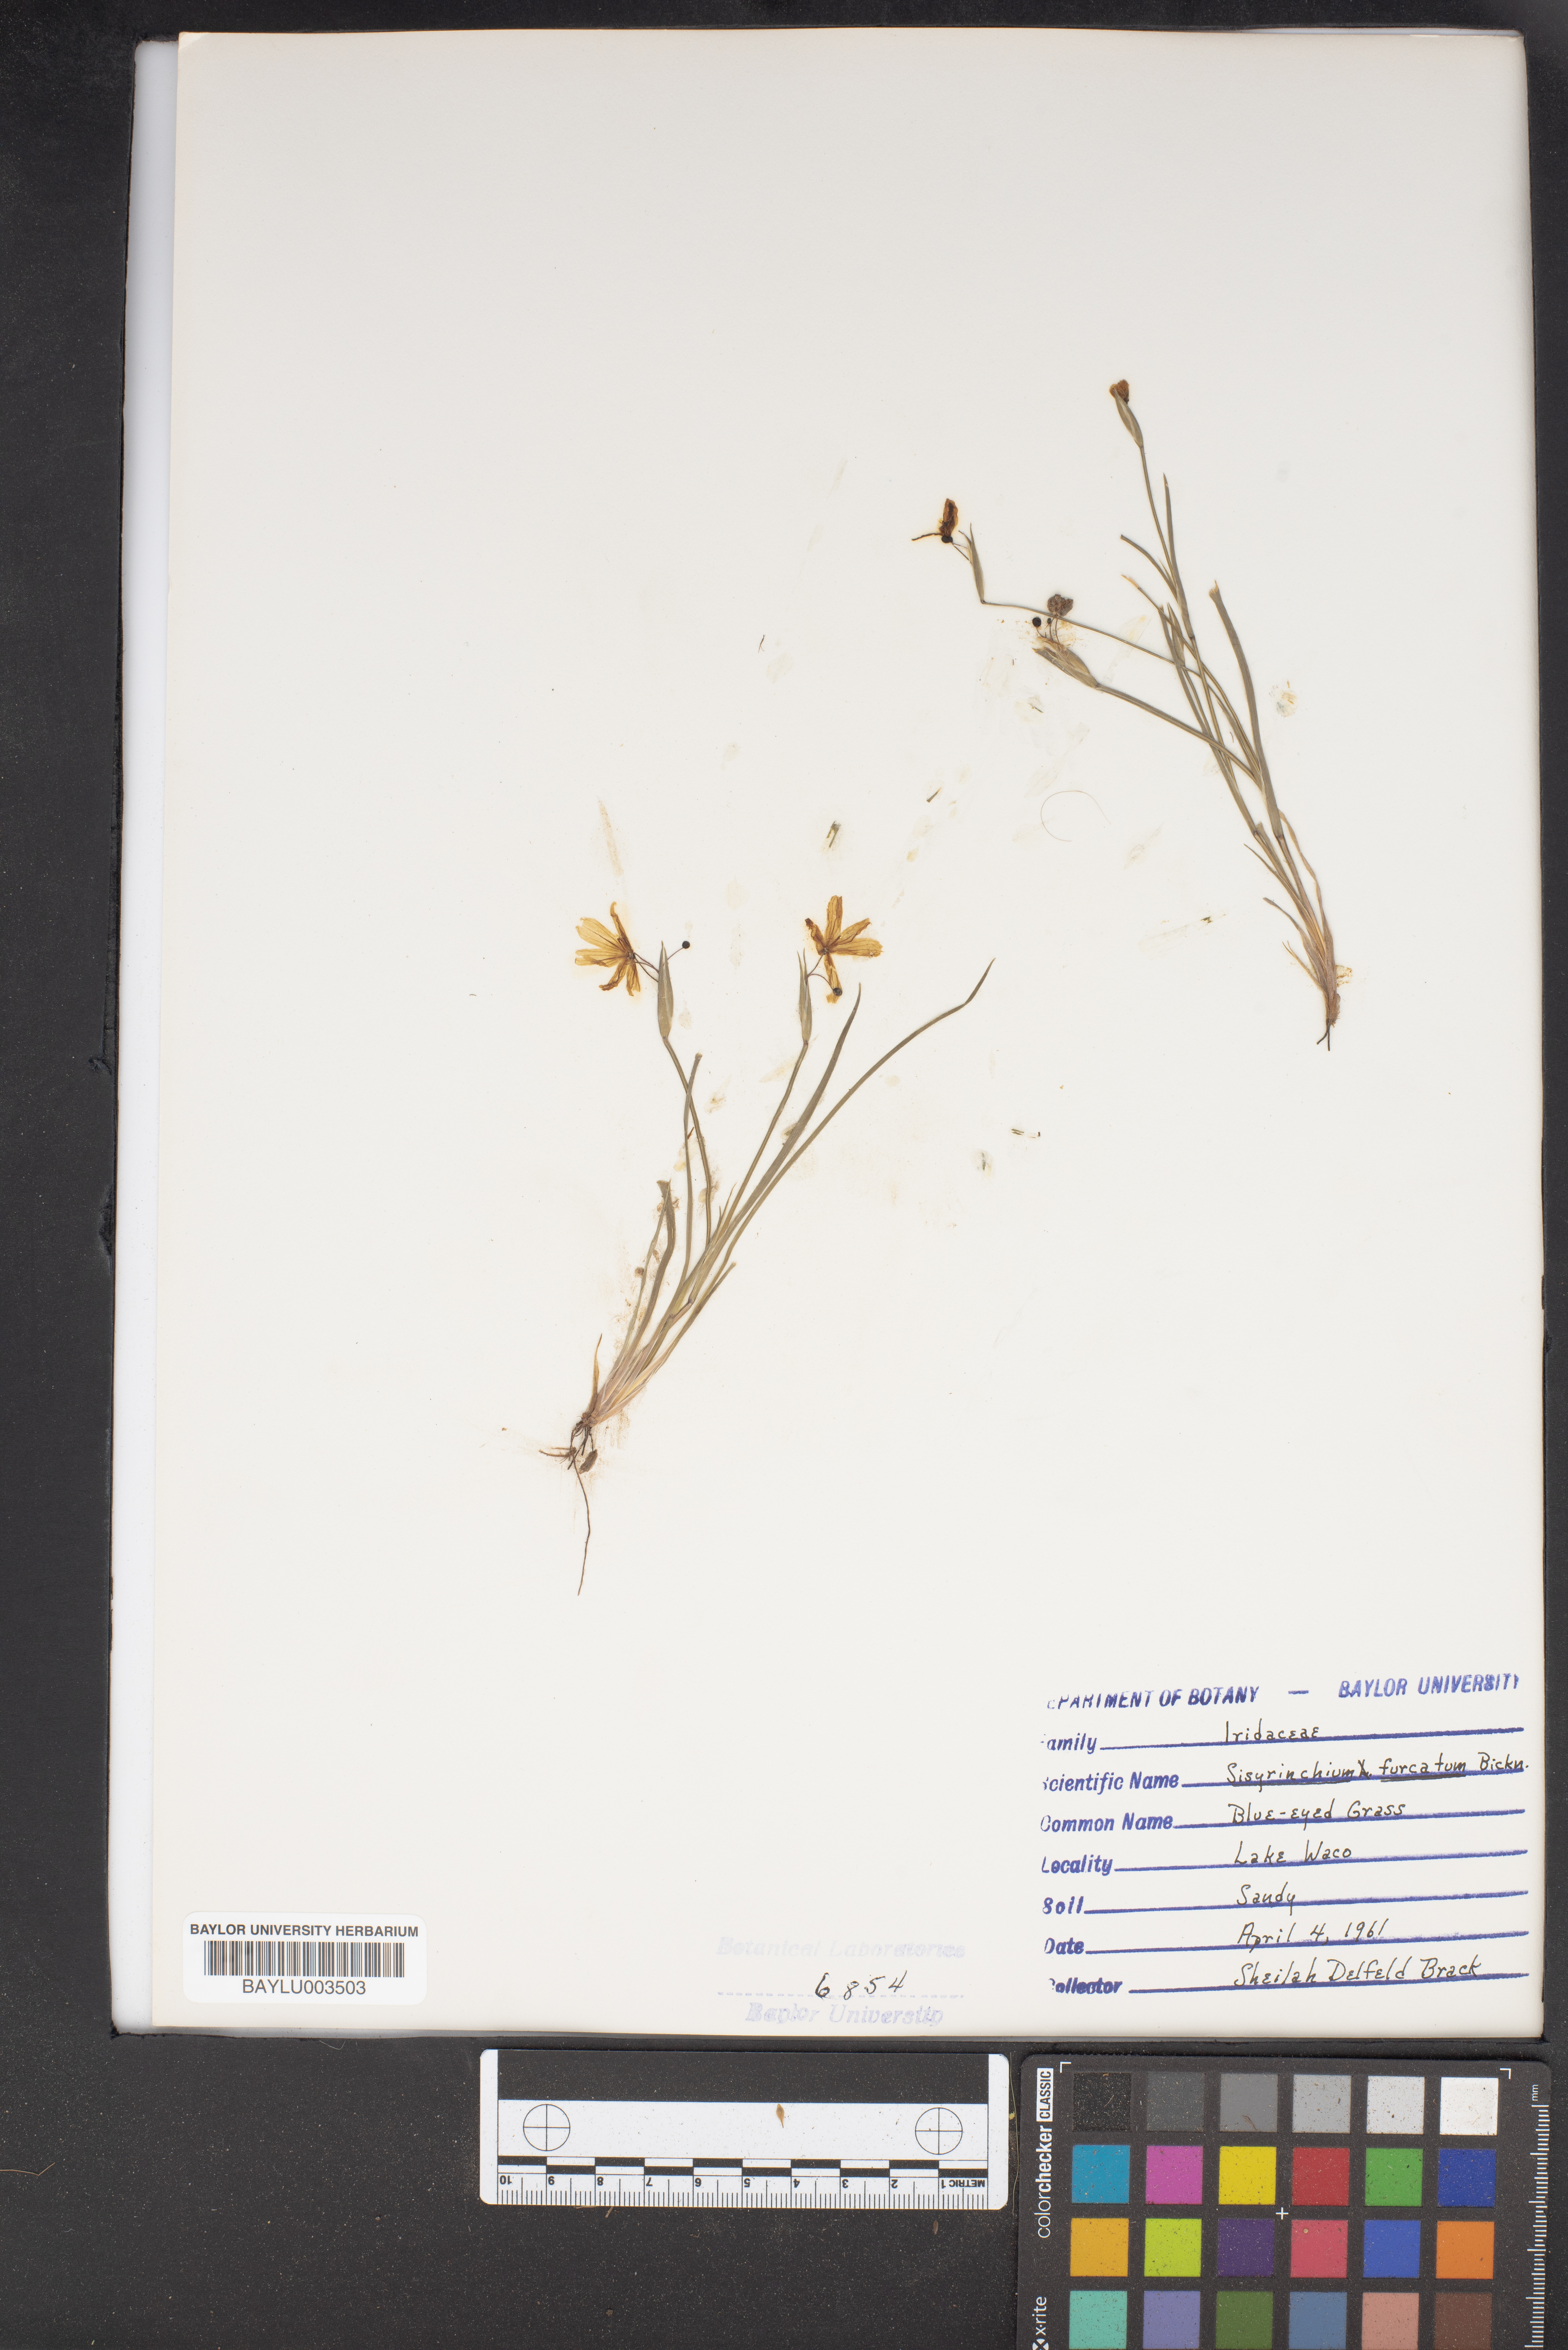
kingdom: Plantae
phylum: Tracheophyta
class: Liliopsida
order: Asparagales
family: Iridaceae
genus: Sisyrinchium
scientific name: Sisyrinchium langloisii
